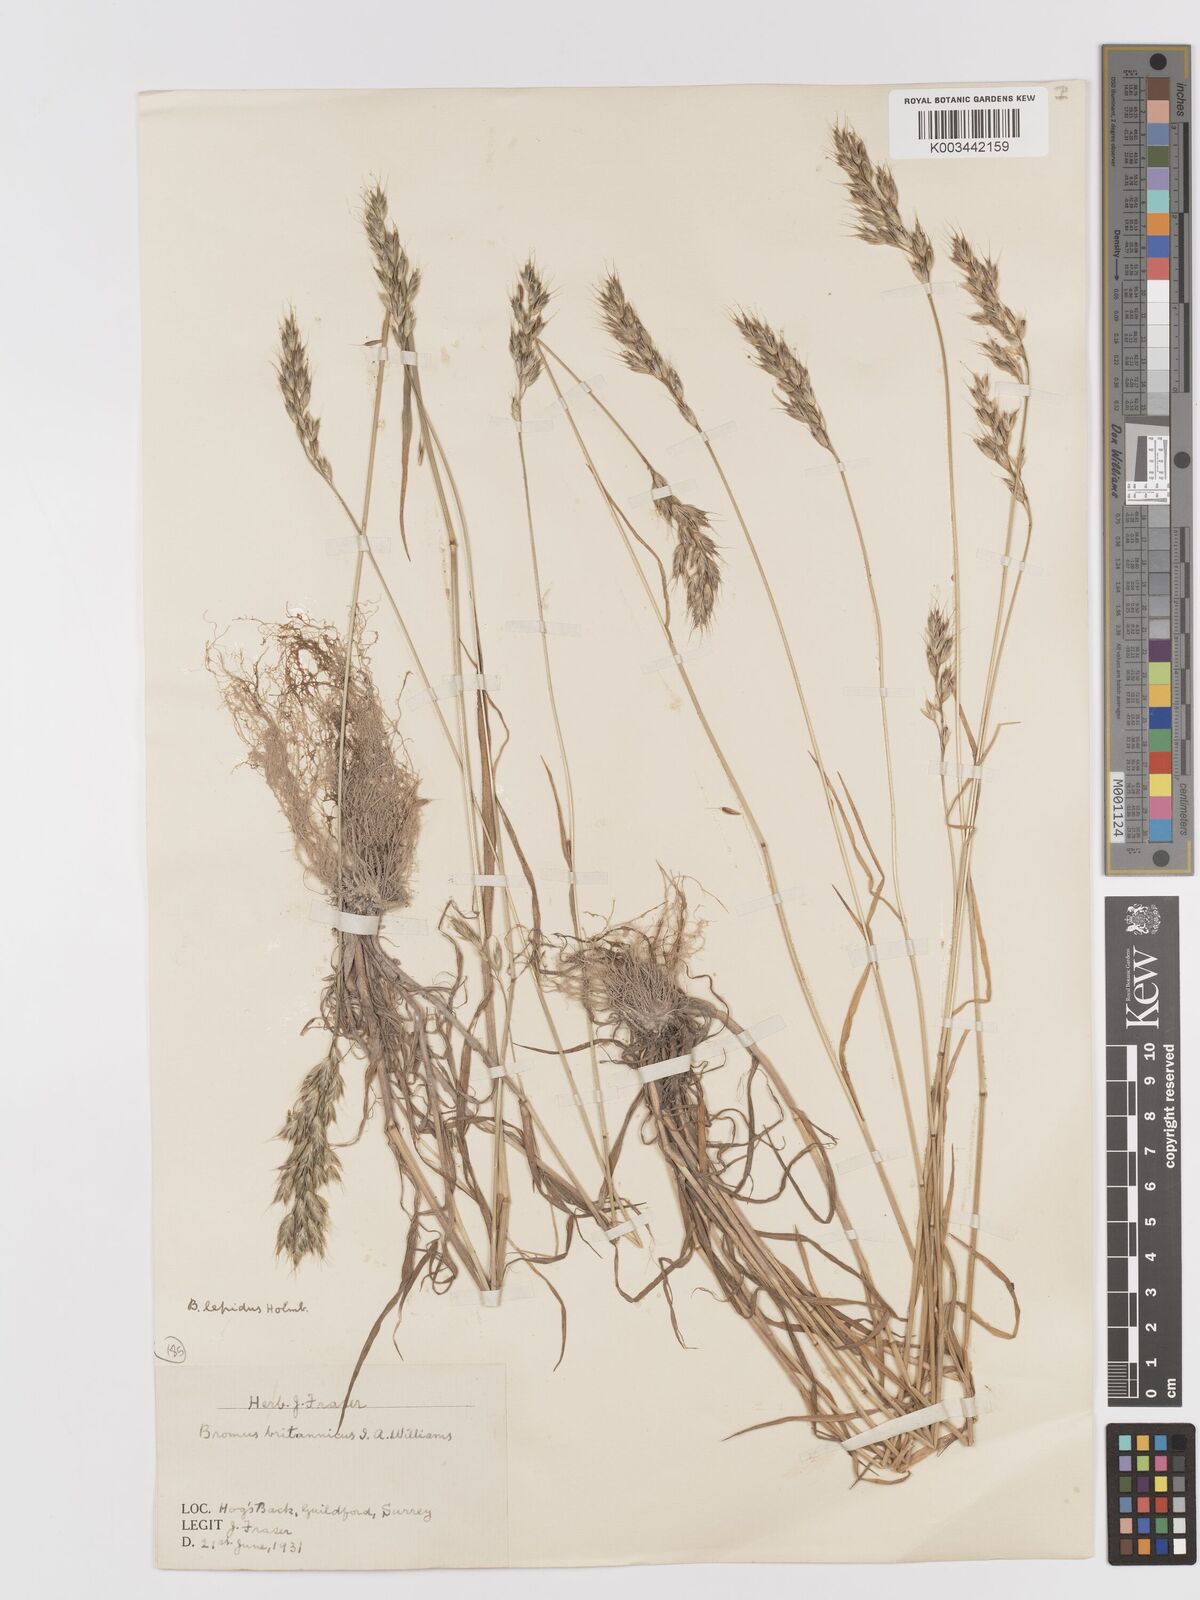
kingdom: Plantae
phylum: Tracheophyta
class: Liliopsida
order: Poales
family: Poaceae
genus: Bromus
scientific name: Bromus lepidus
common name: Slender soft-brome
